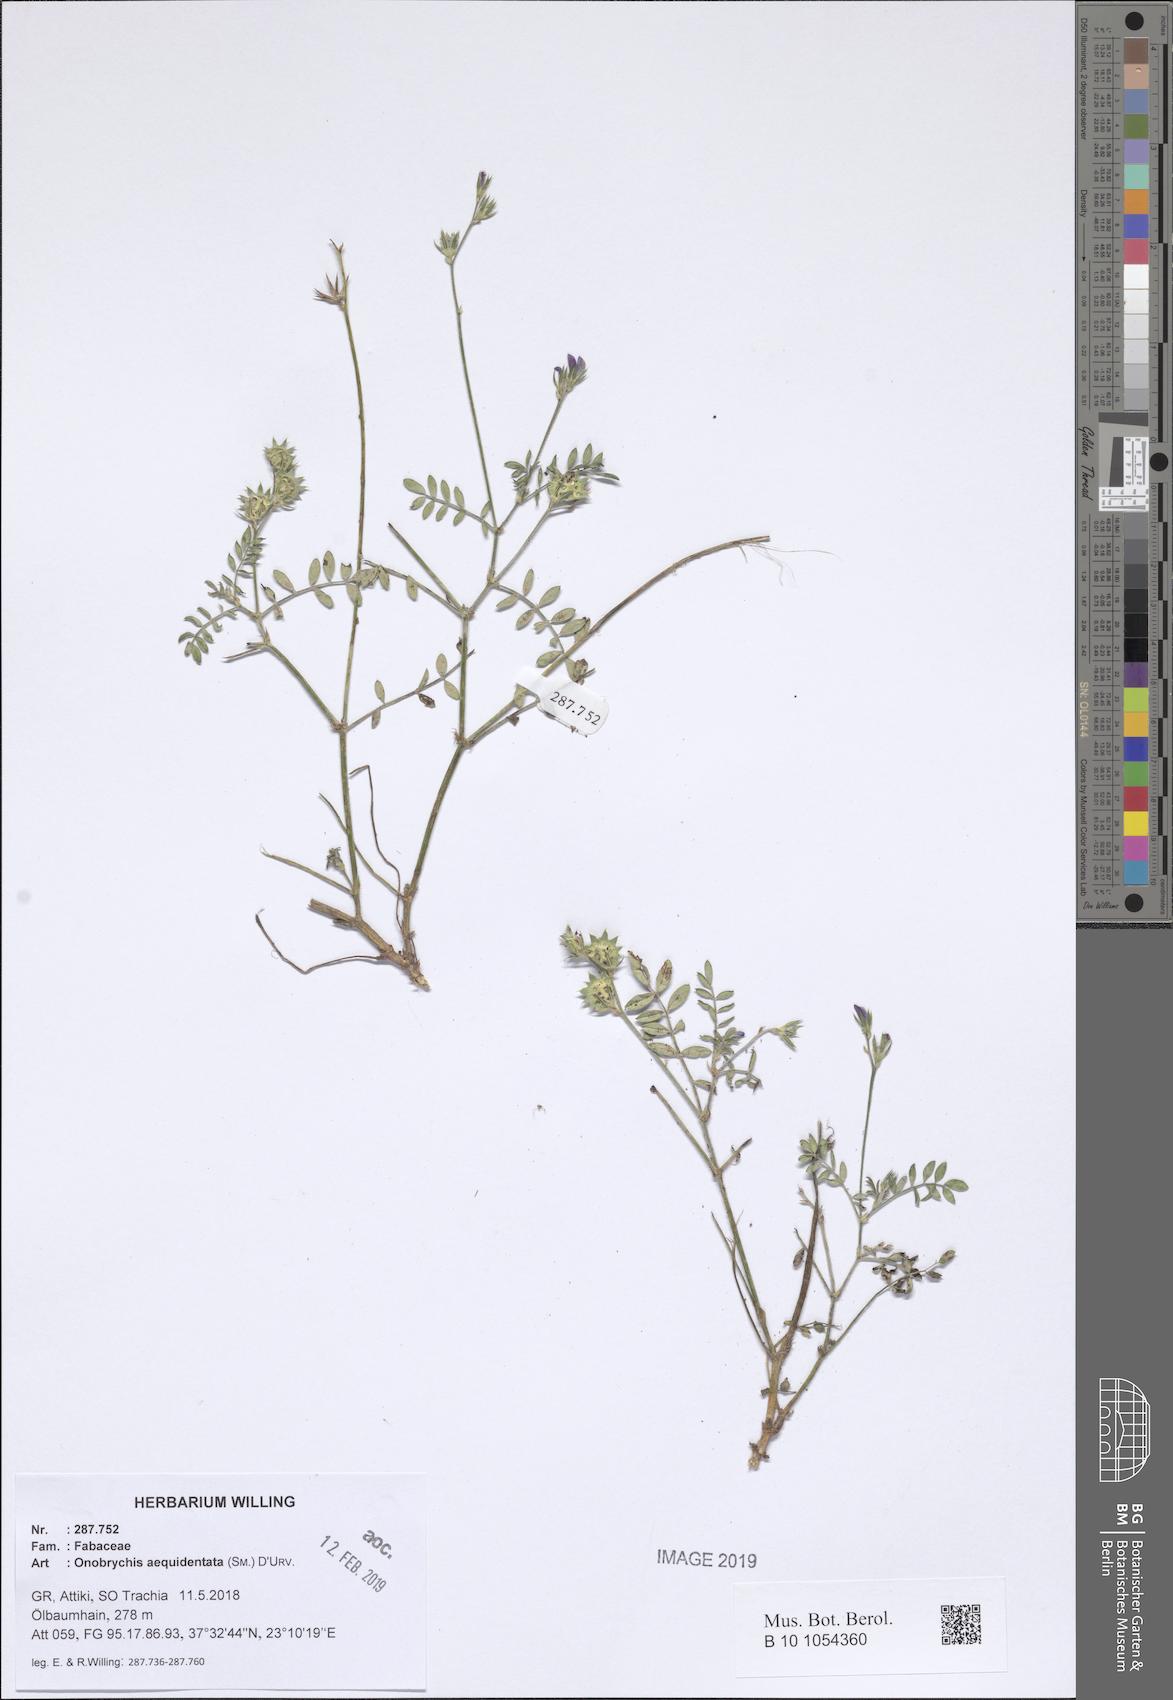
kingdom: Plantae
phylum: Tracheophyta
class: Magnoliopsida
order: Fabales
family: Fabaceae
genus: Onobrychis
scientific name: Onobrychis aequidentata
